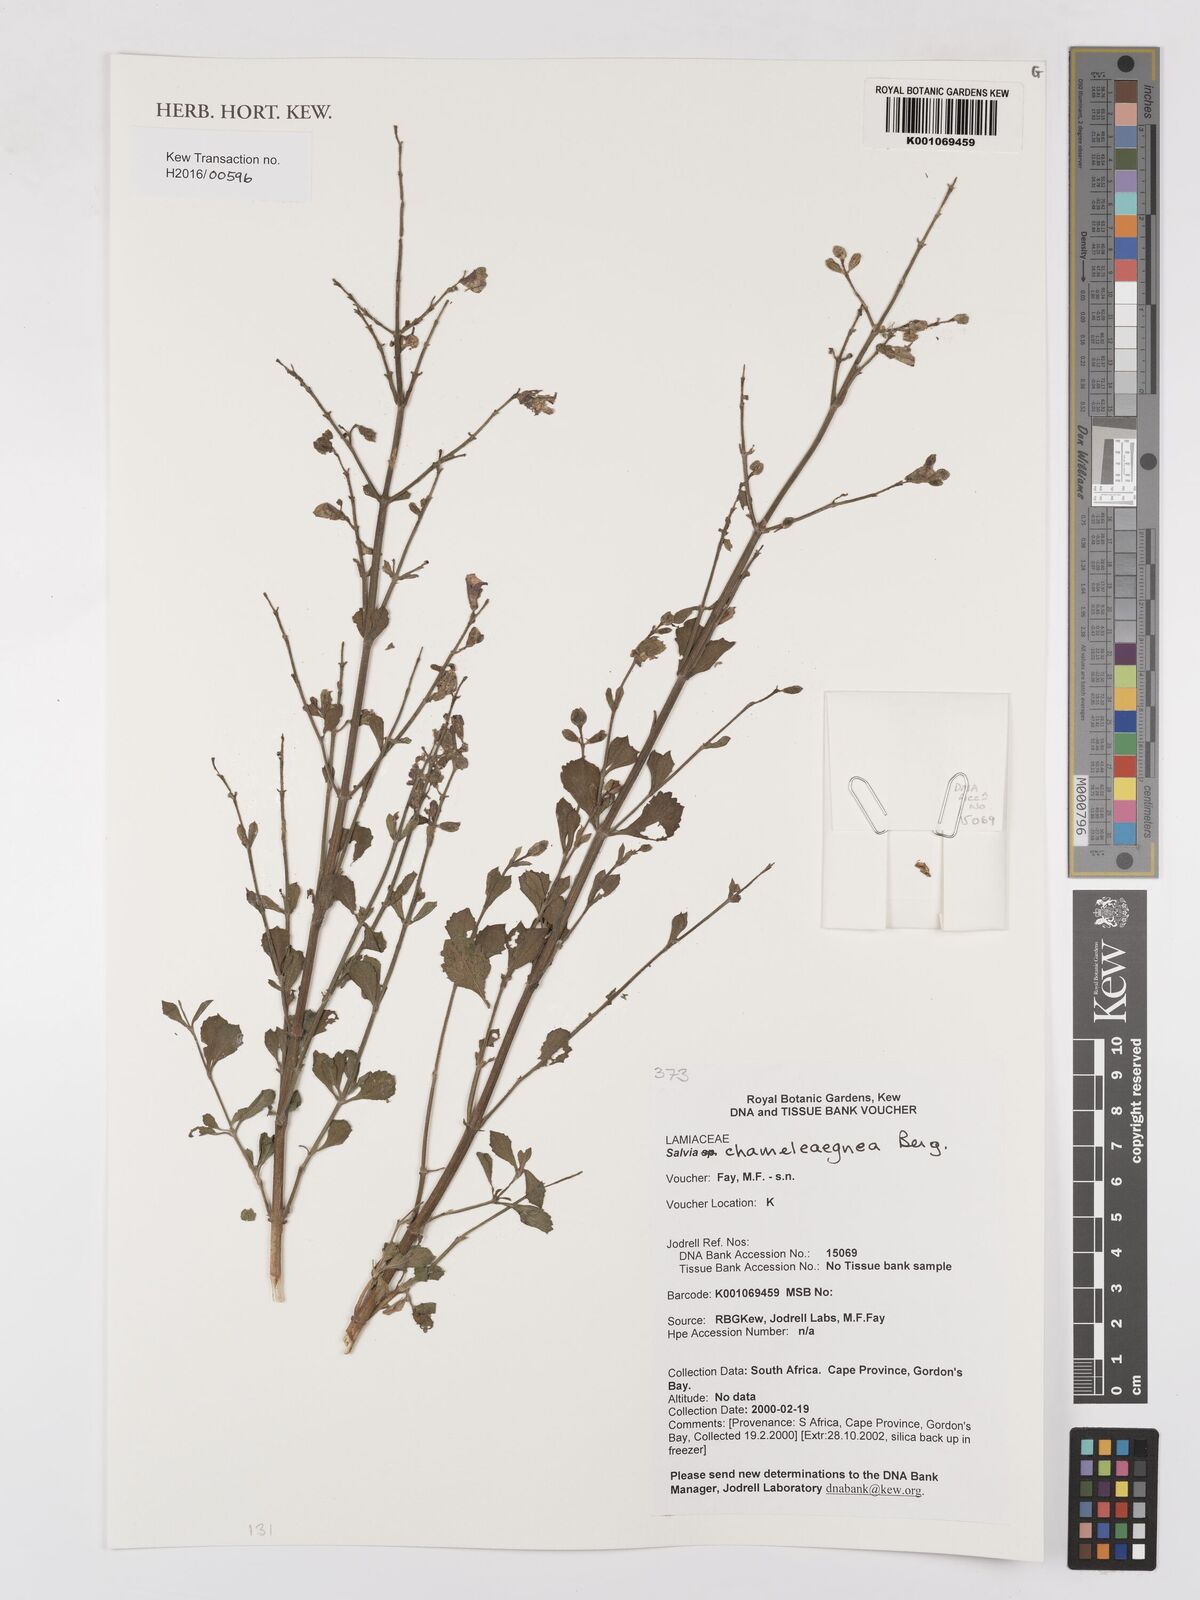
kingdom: Plantae
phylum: Tracheophyta
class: Magnoliopsida
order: Lamiales
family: Lamiaceae
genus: Salvia
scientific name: Salvia chamelaeagnea
